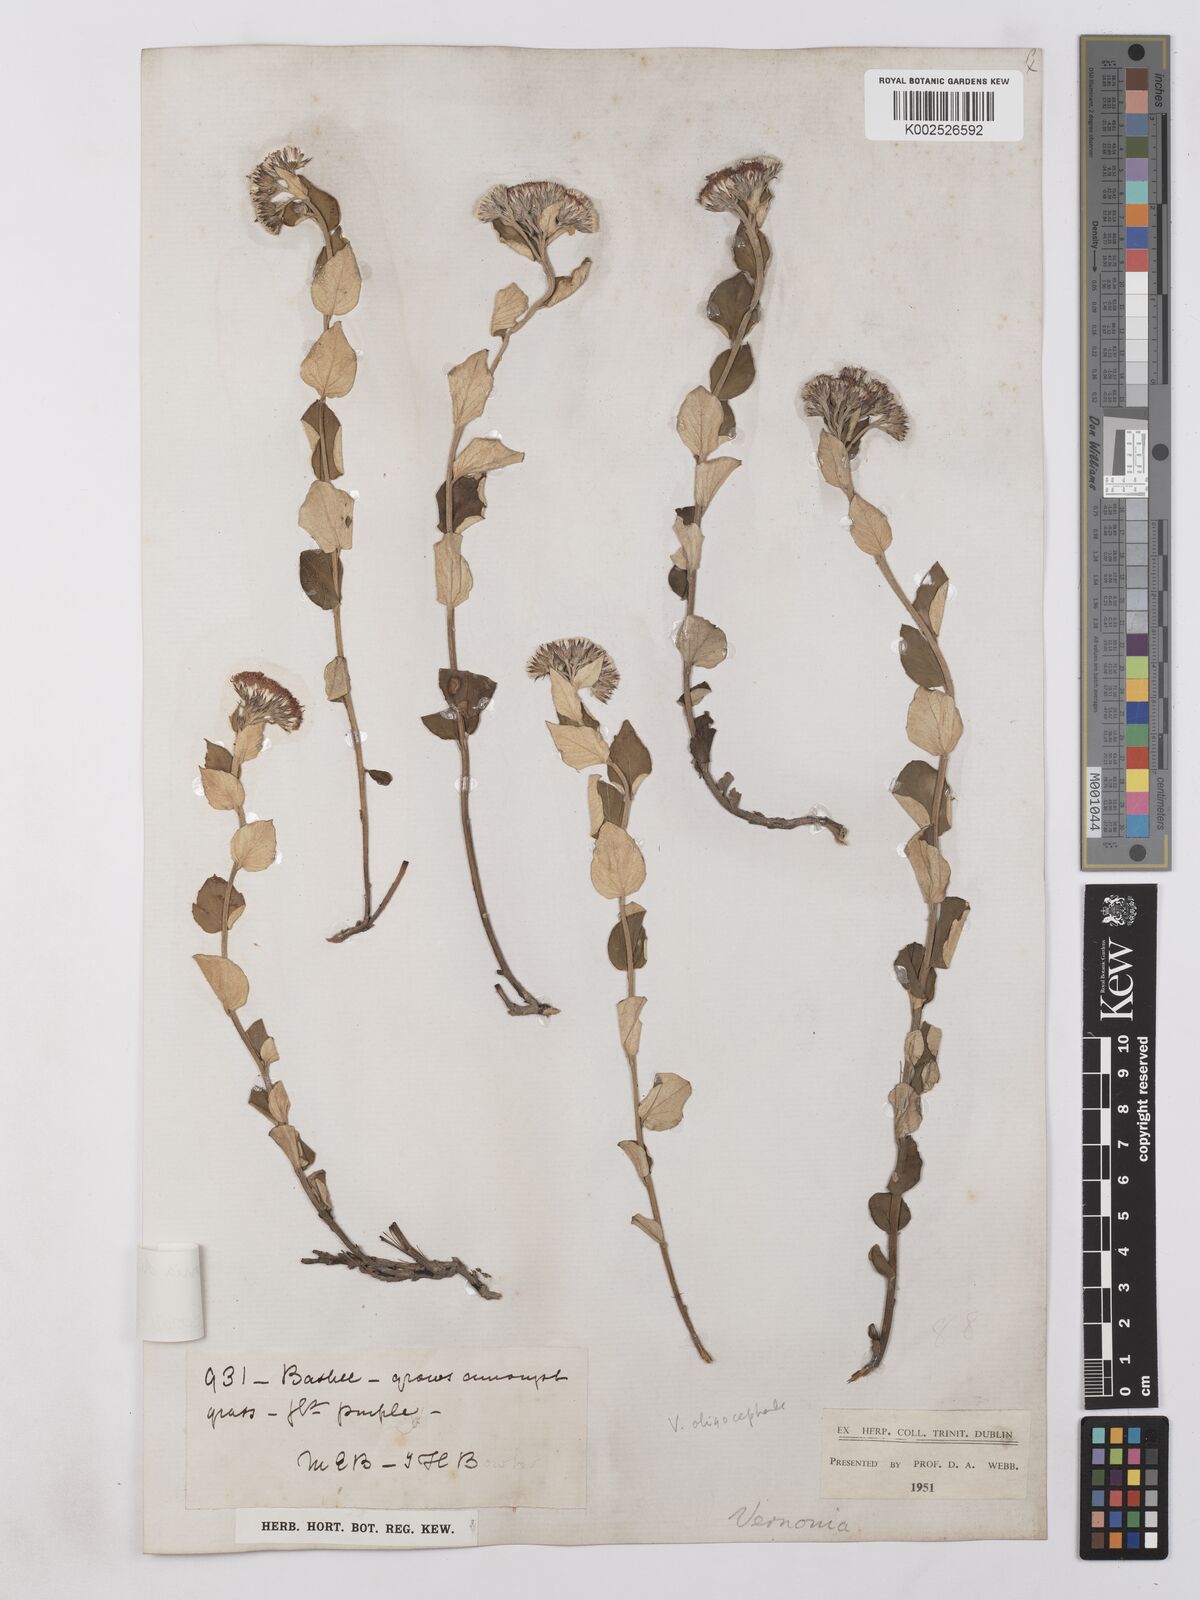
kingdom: Plantae
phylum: Tracheophyta
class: Magnoliopsida
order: Asterales
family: Asteraceae
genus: Lepidaploa
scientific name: Lepidaploa aurea
